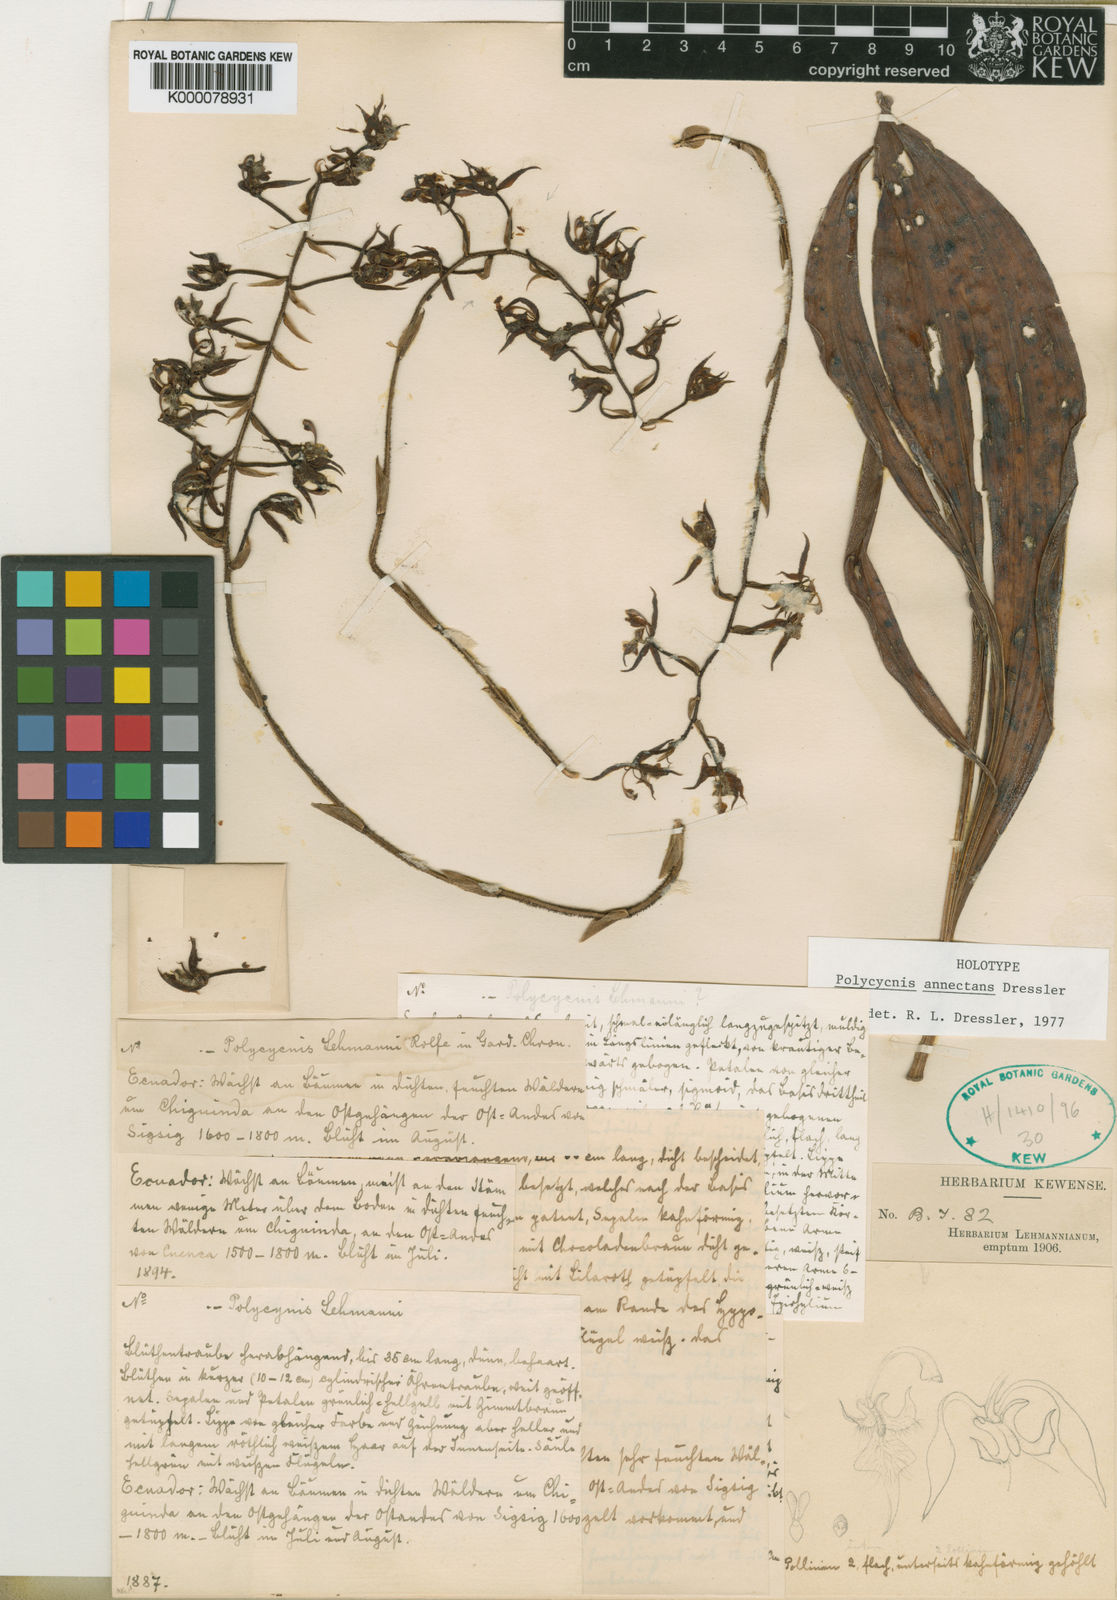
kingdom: Plantae
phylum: Tracheophyta
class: Liliopsida
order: Asparagales
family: Orchidaceae
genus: Polycycnis
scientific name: Polycycnis annectans
